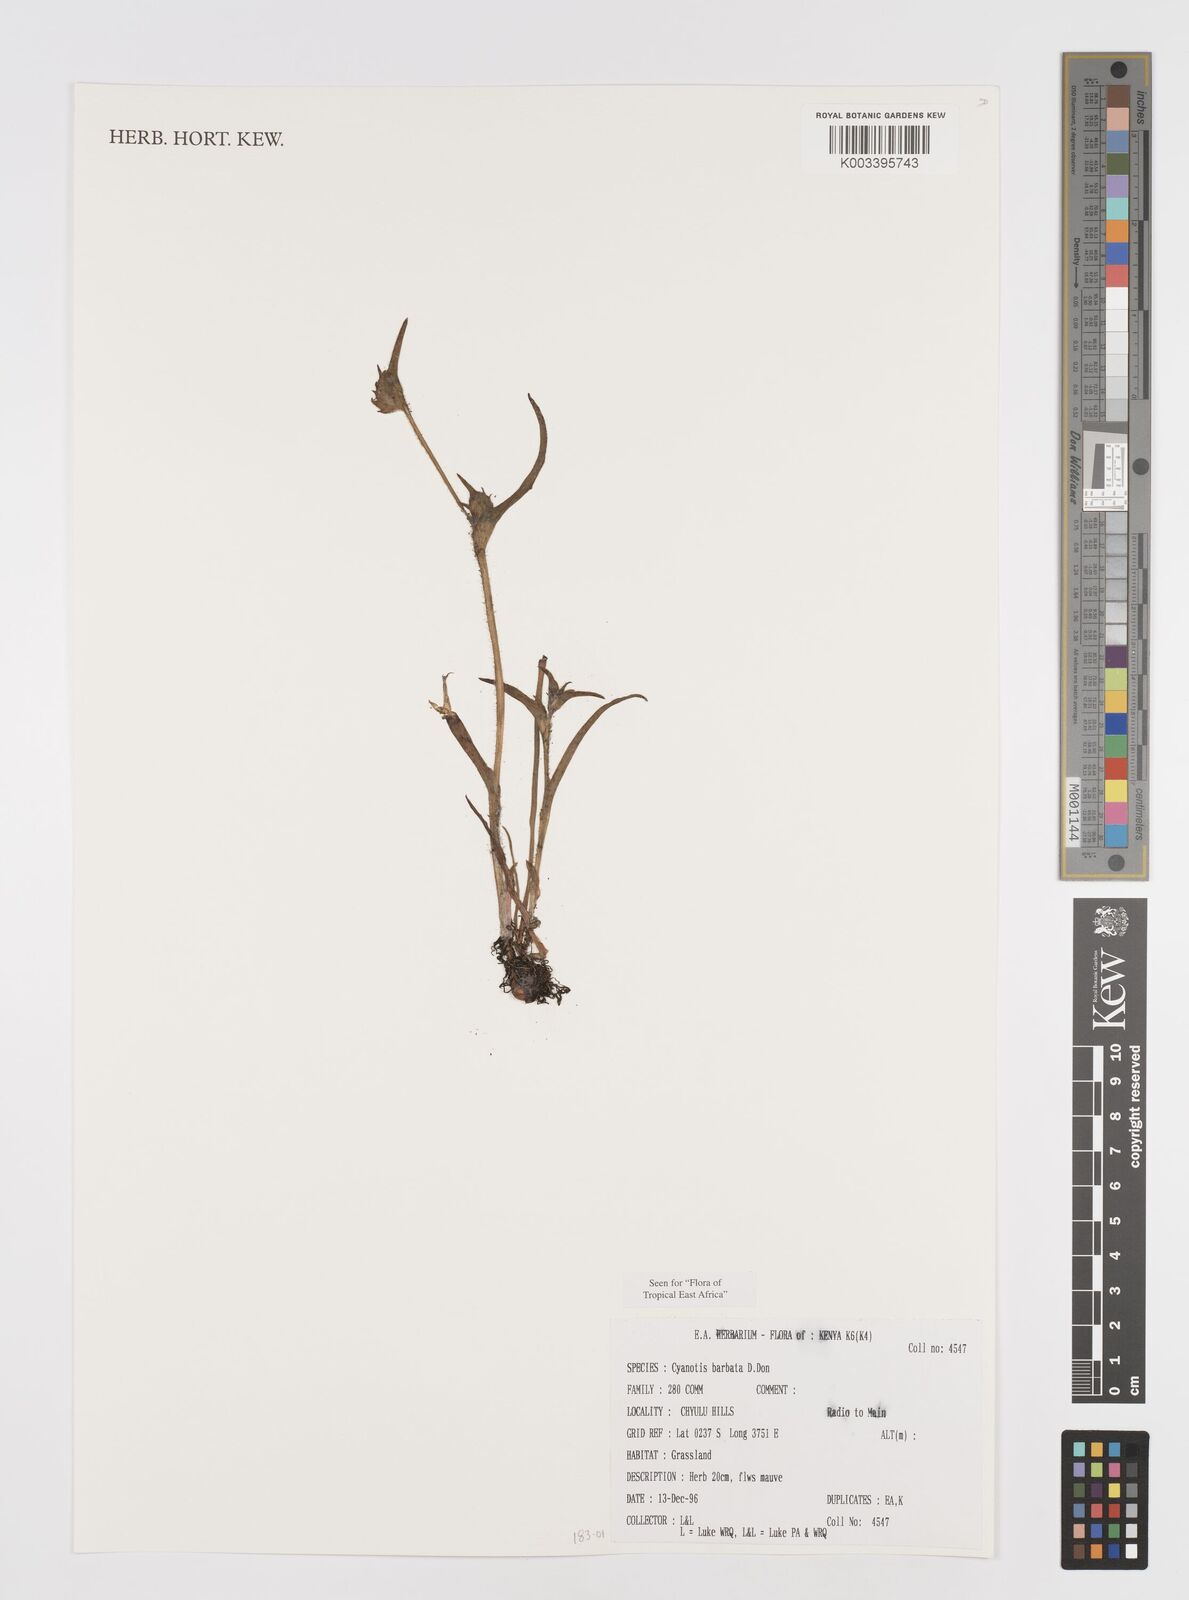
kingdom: Plantae
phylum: Tracheophyta
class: Liliopsida
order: Commelinales
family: Commelinaceae
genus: Cyanotis
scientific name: Cyanotis vaga
